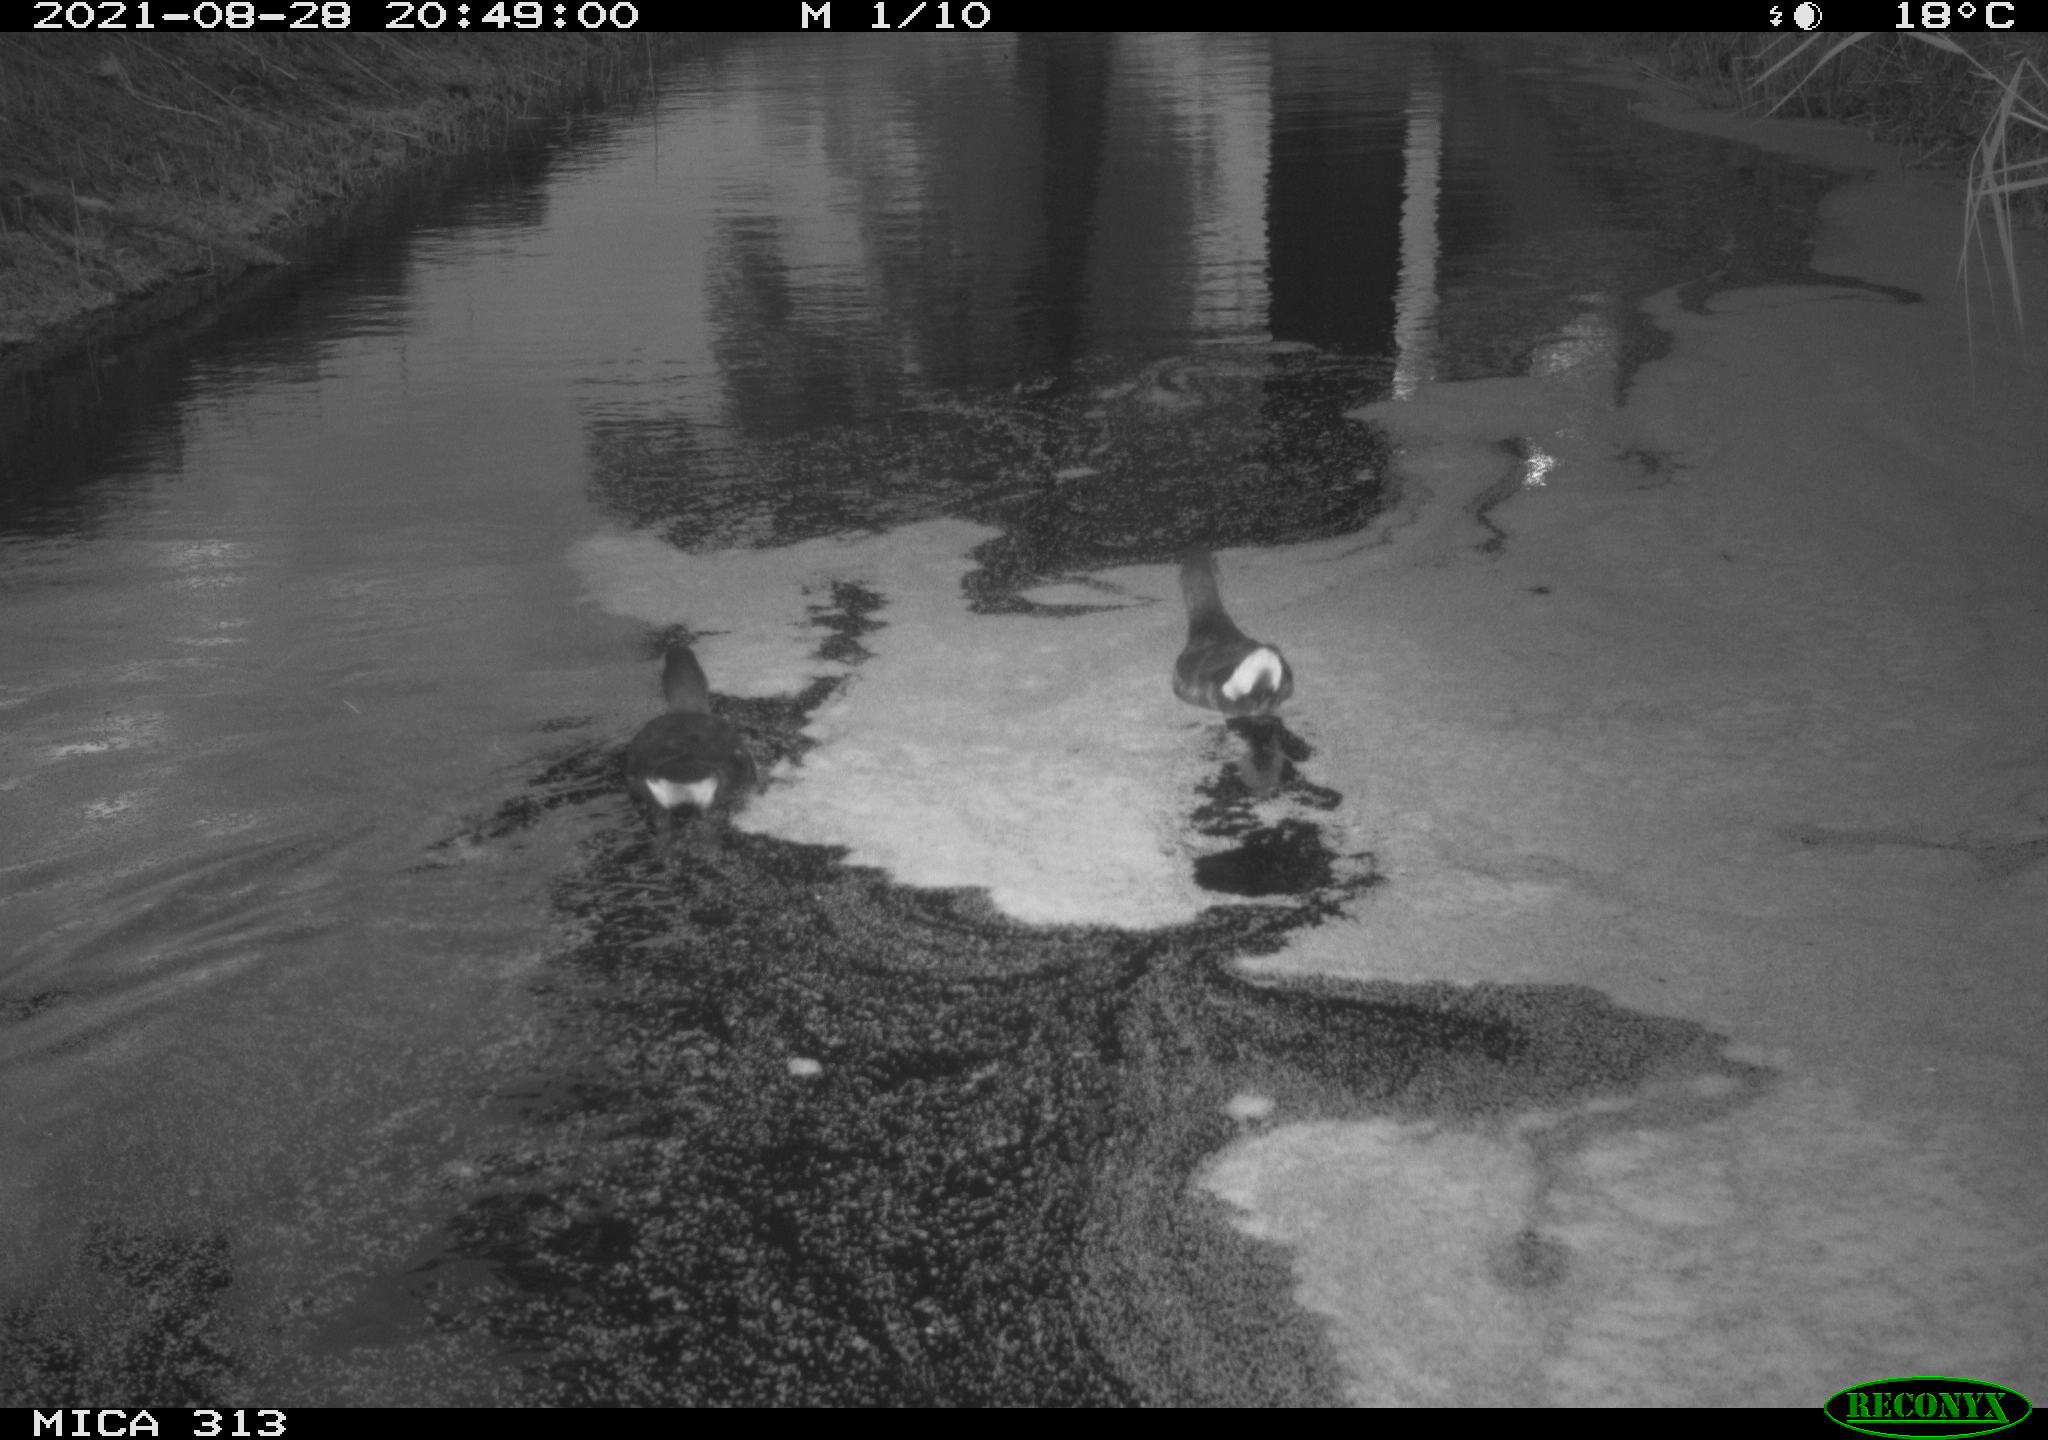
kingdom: Animalia
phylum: Chordata
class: Aves
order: Gruiformes
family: Rallidae
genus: Gallinula
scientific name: Gallinula chloropus
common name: Common moorhen
